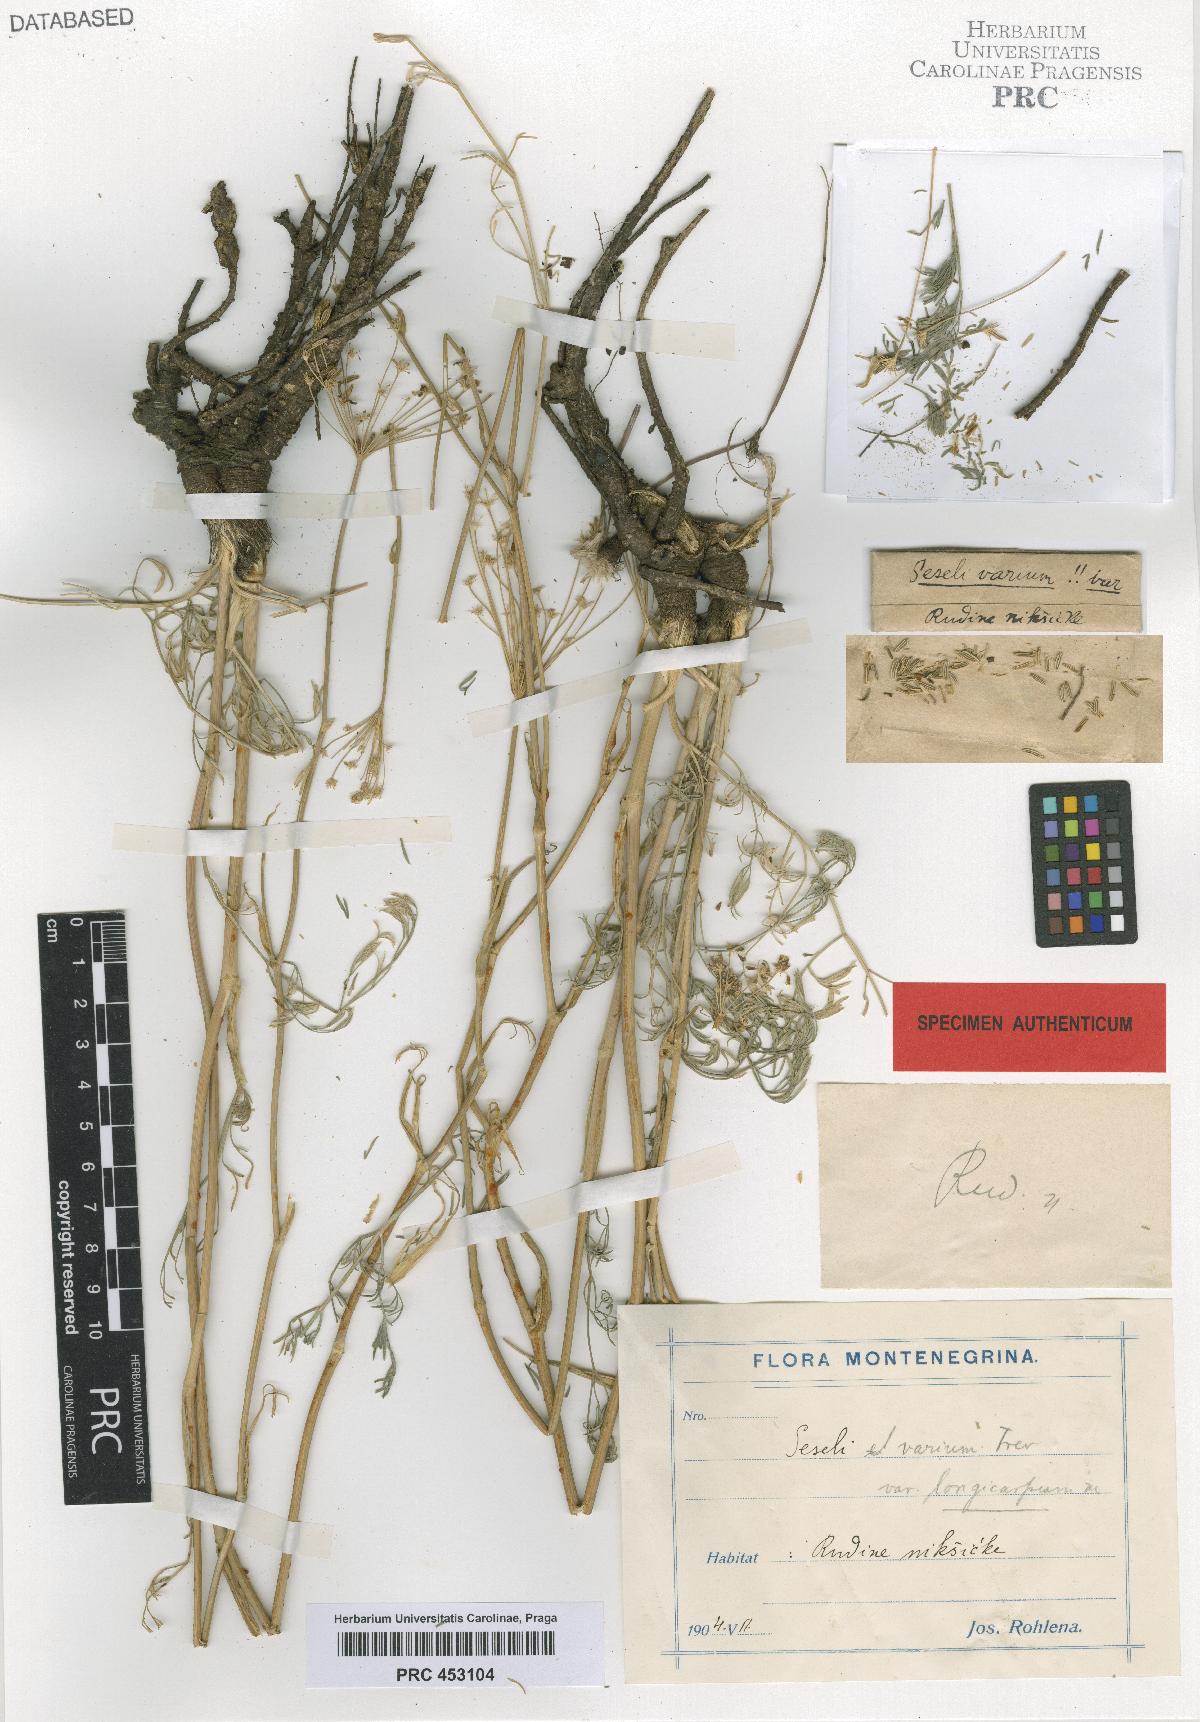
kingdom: Plantae
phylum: Tracheophyta
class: Magnoliopsida
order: Apiales
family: Apiaceae
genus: Seseli
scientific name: Seseli pallasii
